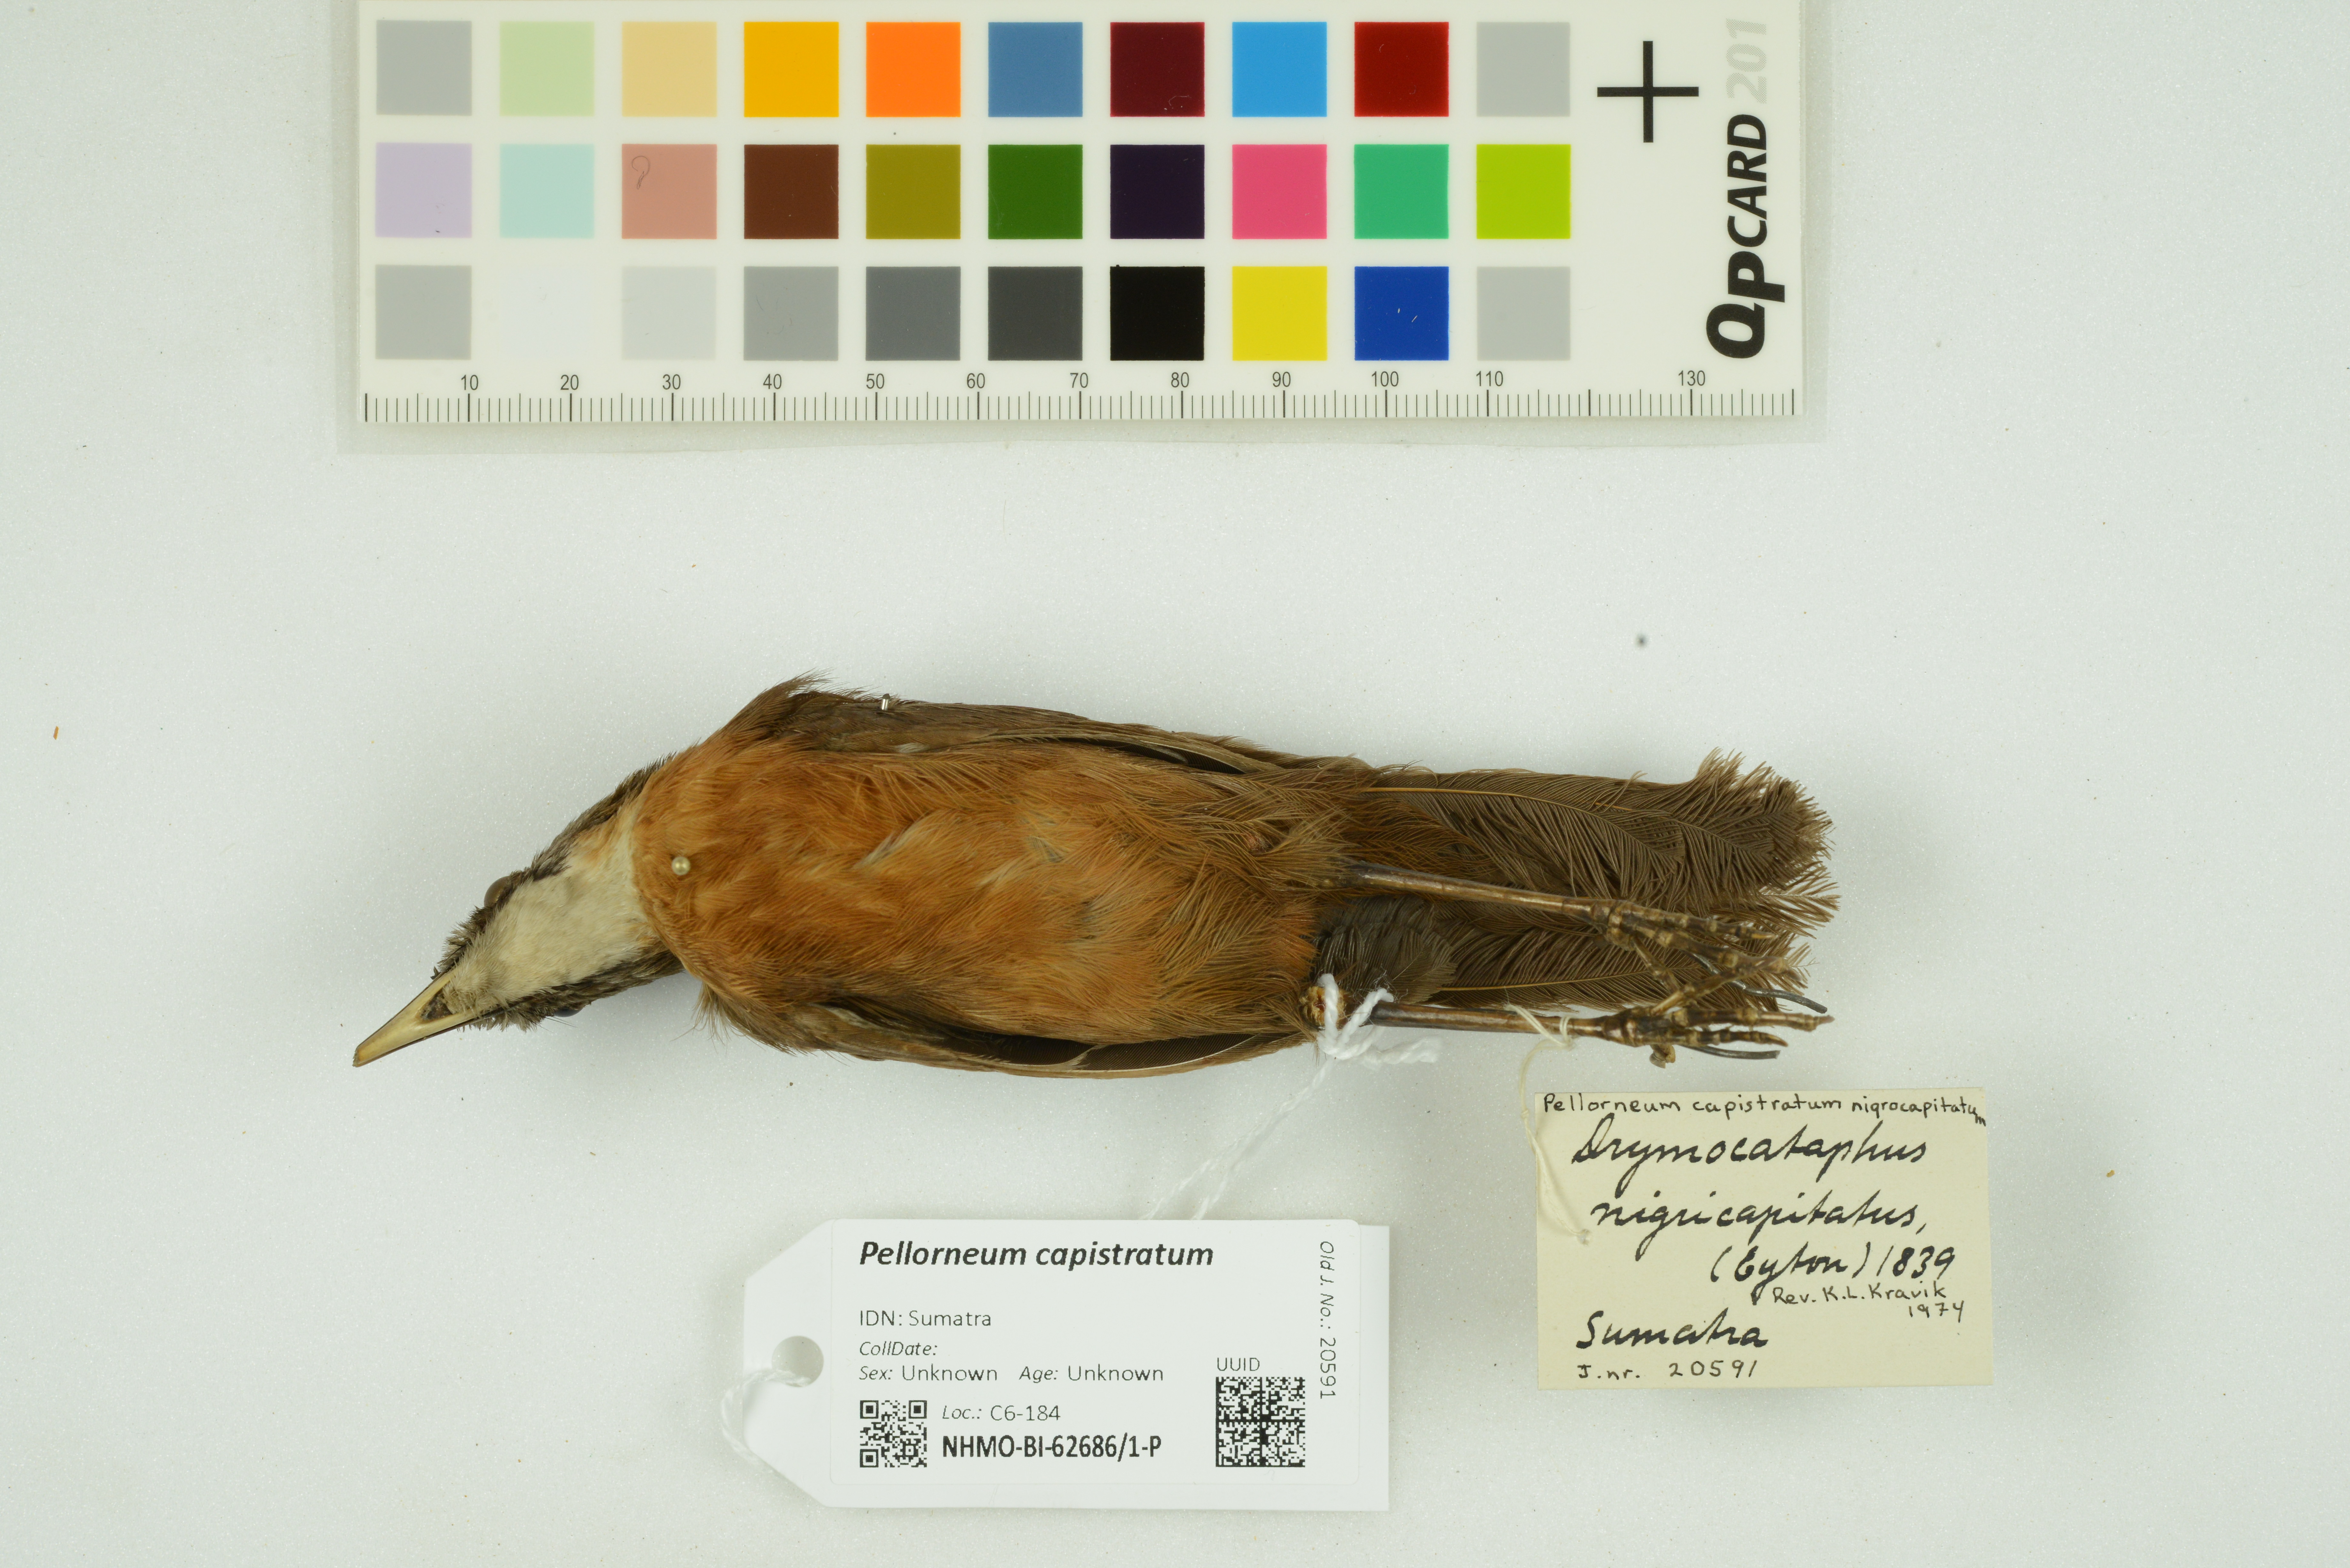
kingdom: Animalia
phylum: Chordata
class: Aves
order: Passeriformes
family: Pellorneidae
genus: Pellorneum
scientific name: Pellorneum capistratum
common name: Black-capped babbler
